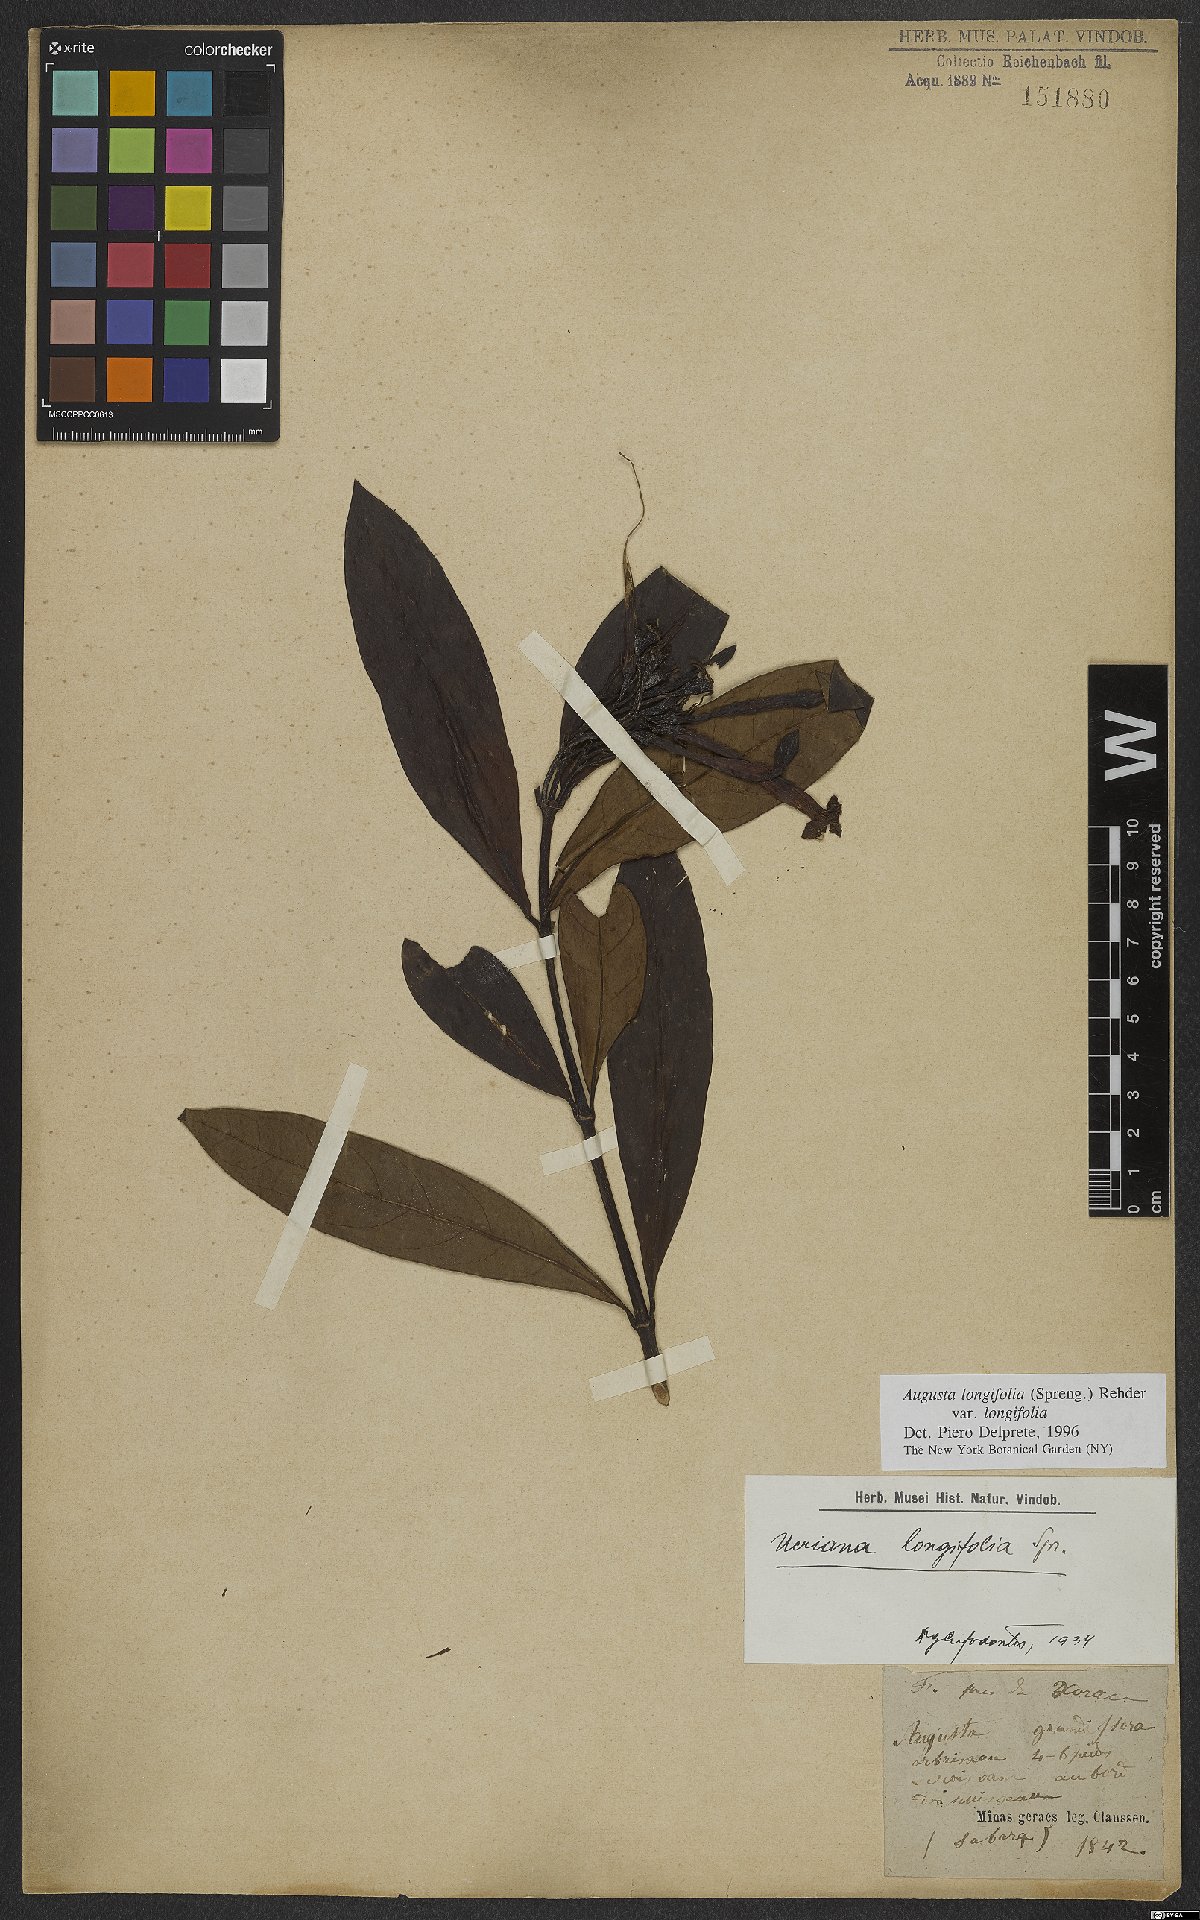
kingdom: Plantae
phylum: Tracheophyta
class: Magnoliopsida
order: Gentianales
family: Rubiaceae
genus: Augusta
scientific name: Augusta longifolia
